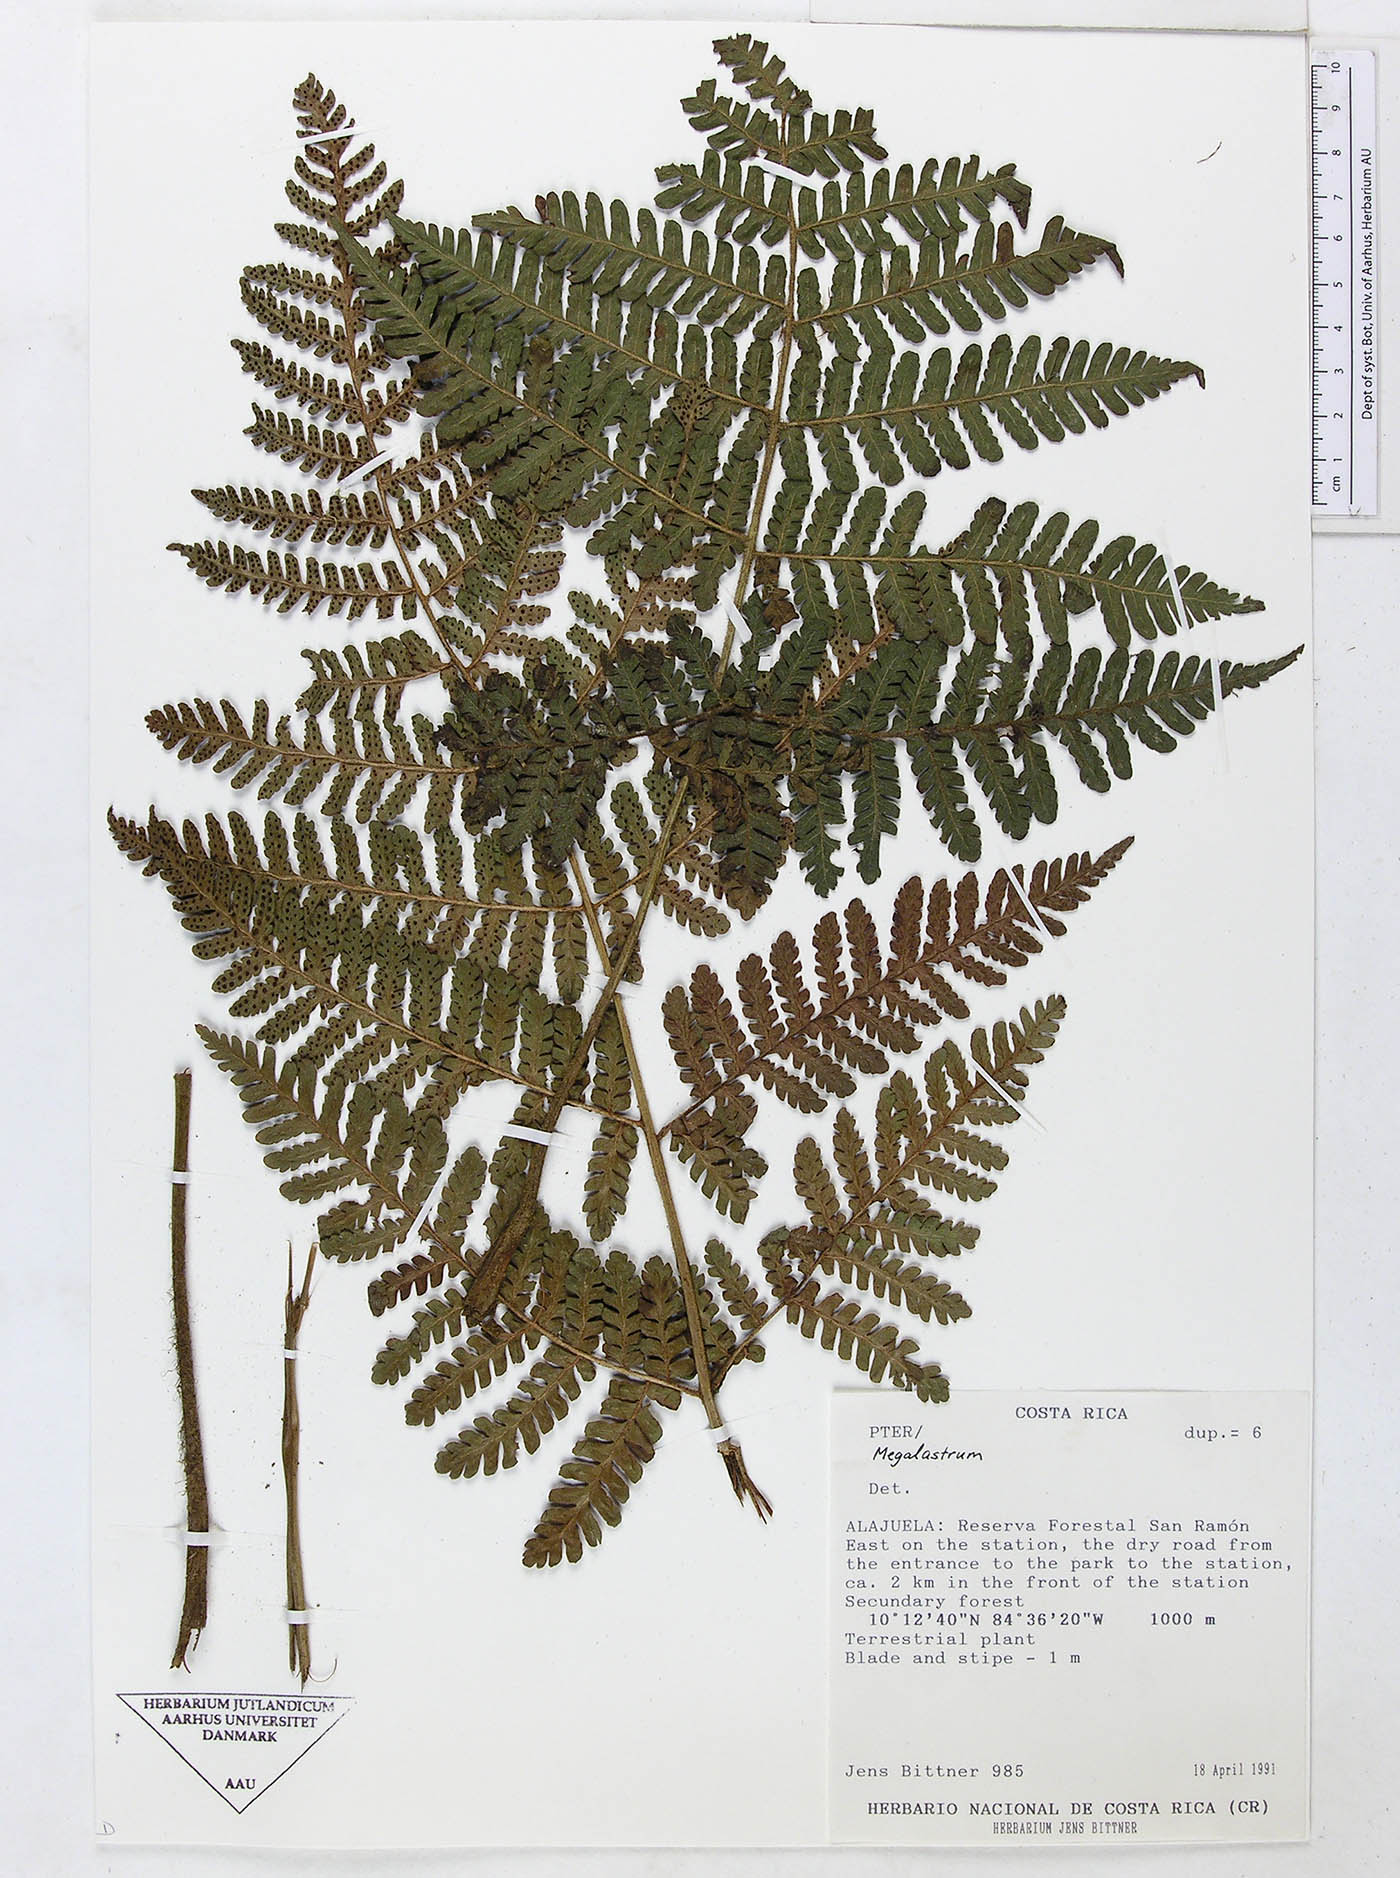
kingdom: Plantae
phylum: Tracheophyta
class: Polypodiopsida
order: Polypodiales
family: Dryopteridaceae
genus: Megalastrum
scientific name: Megalastrum longipilosum
